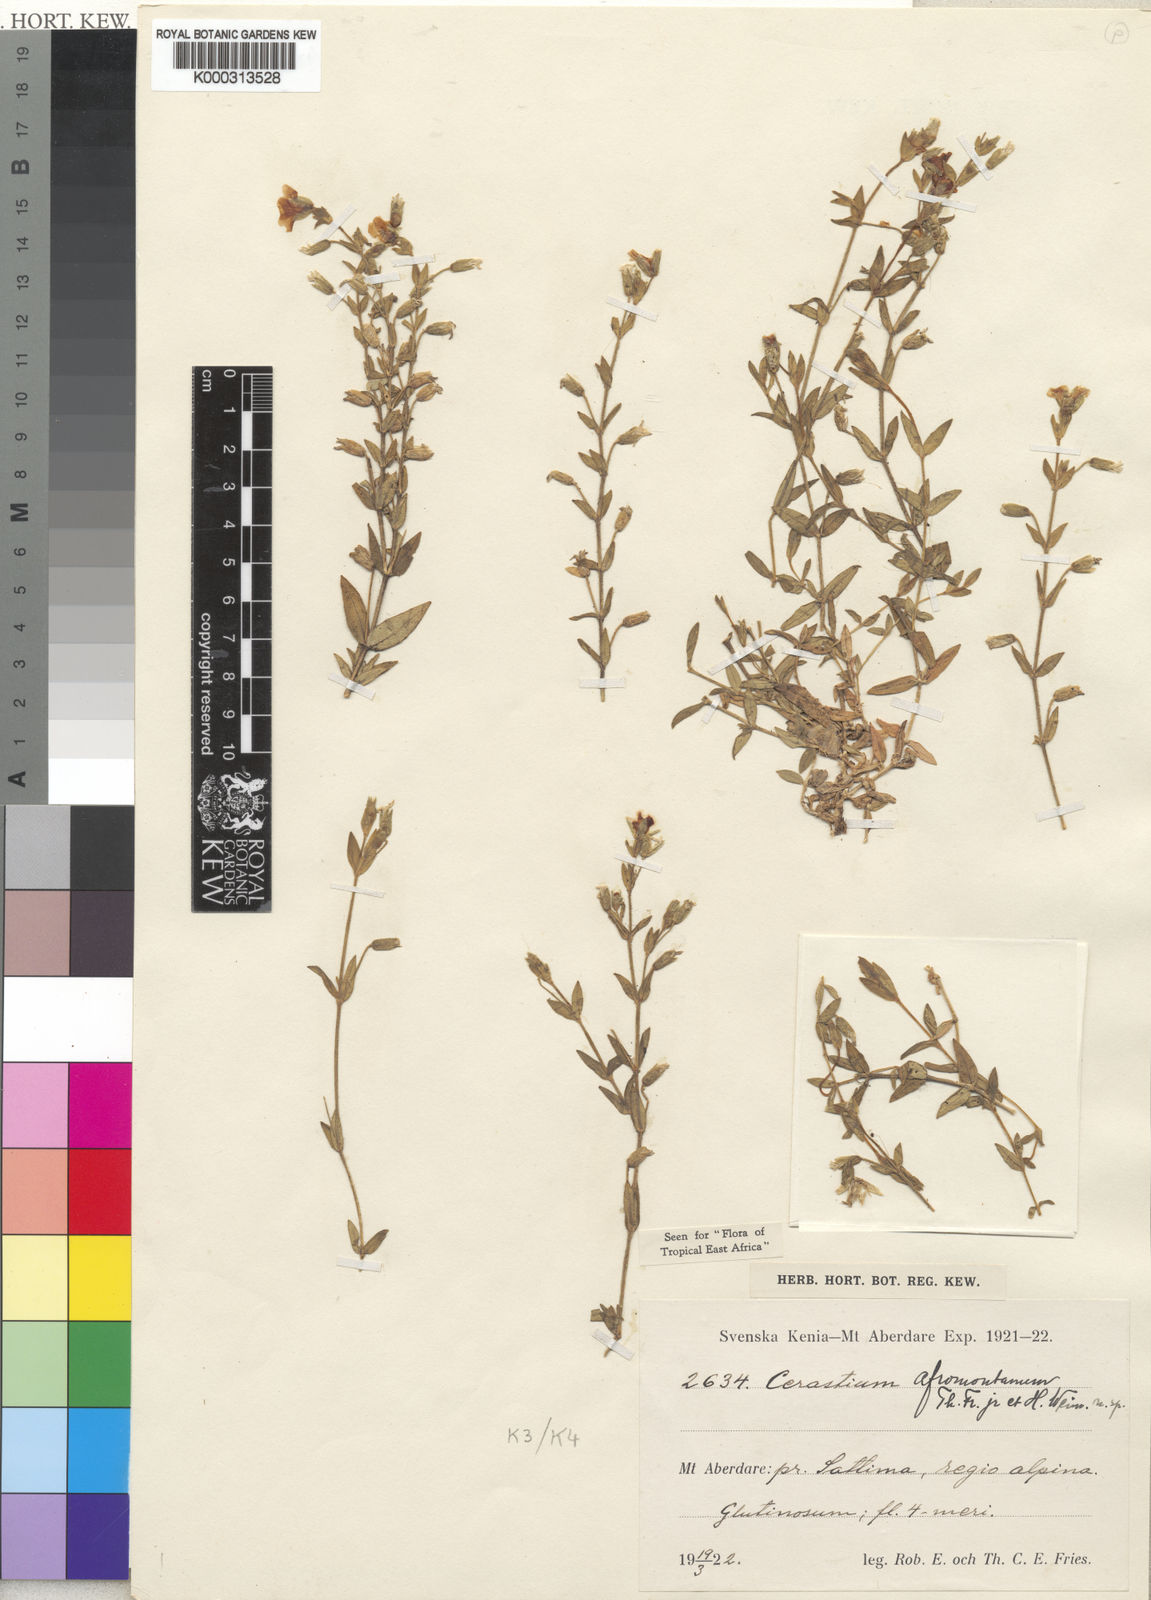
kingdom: Plantae
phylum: Tracheophyta
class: Magnoliopsida
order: Caryophyllales
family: Caryophyllaceae
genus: Cerastium
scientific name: Cerastium afromontanum
